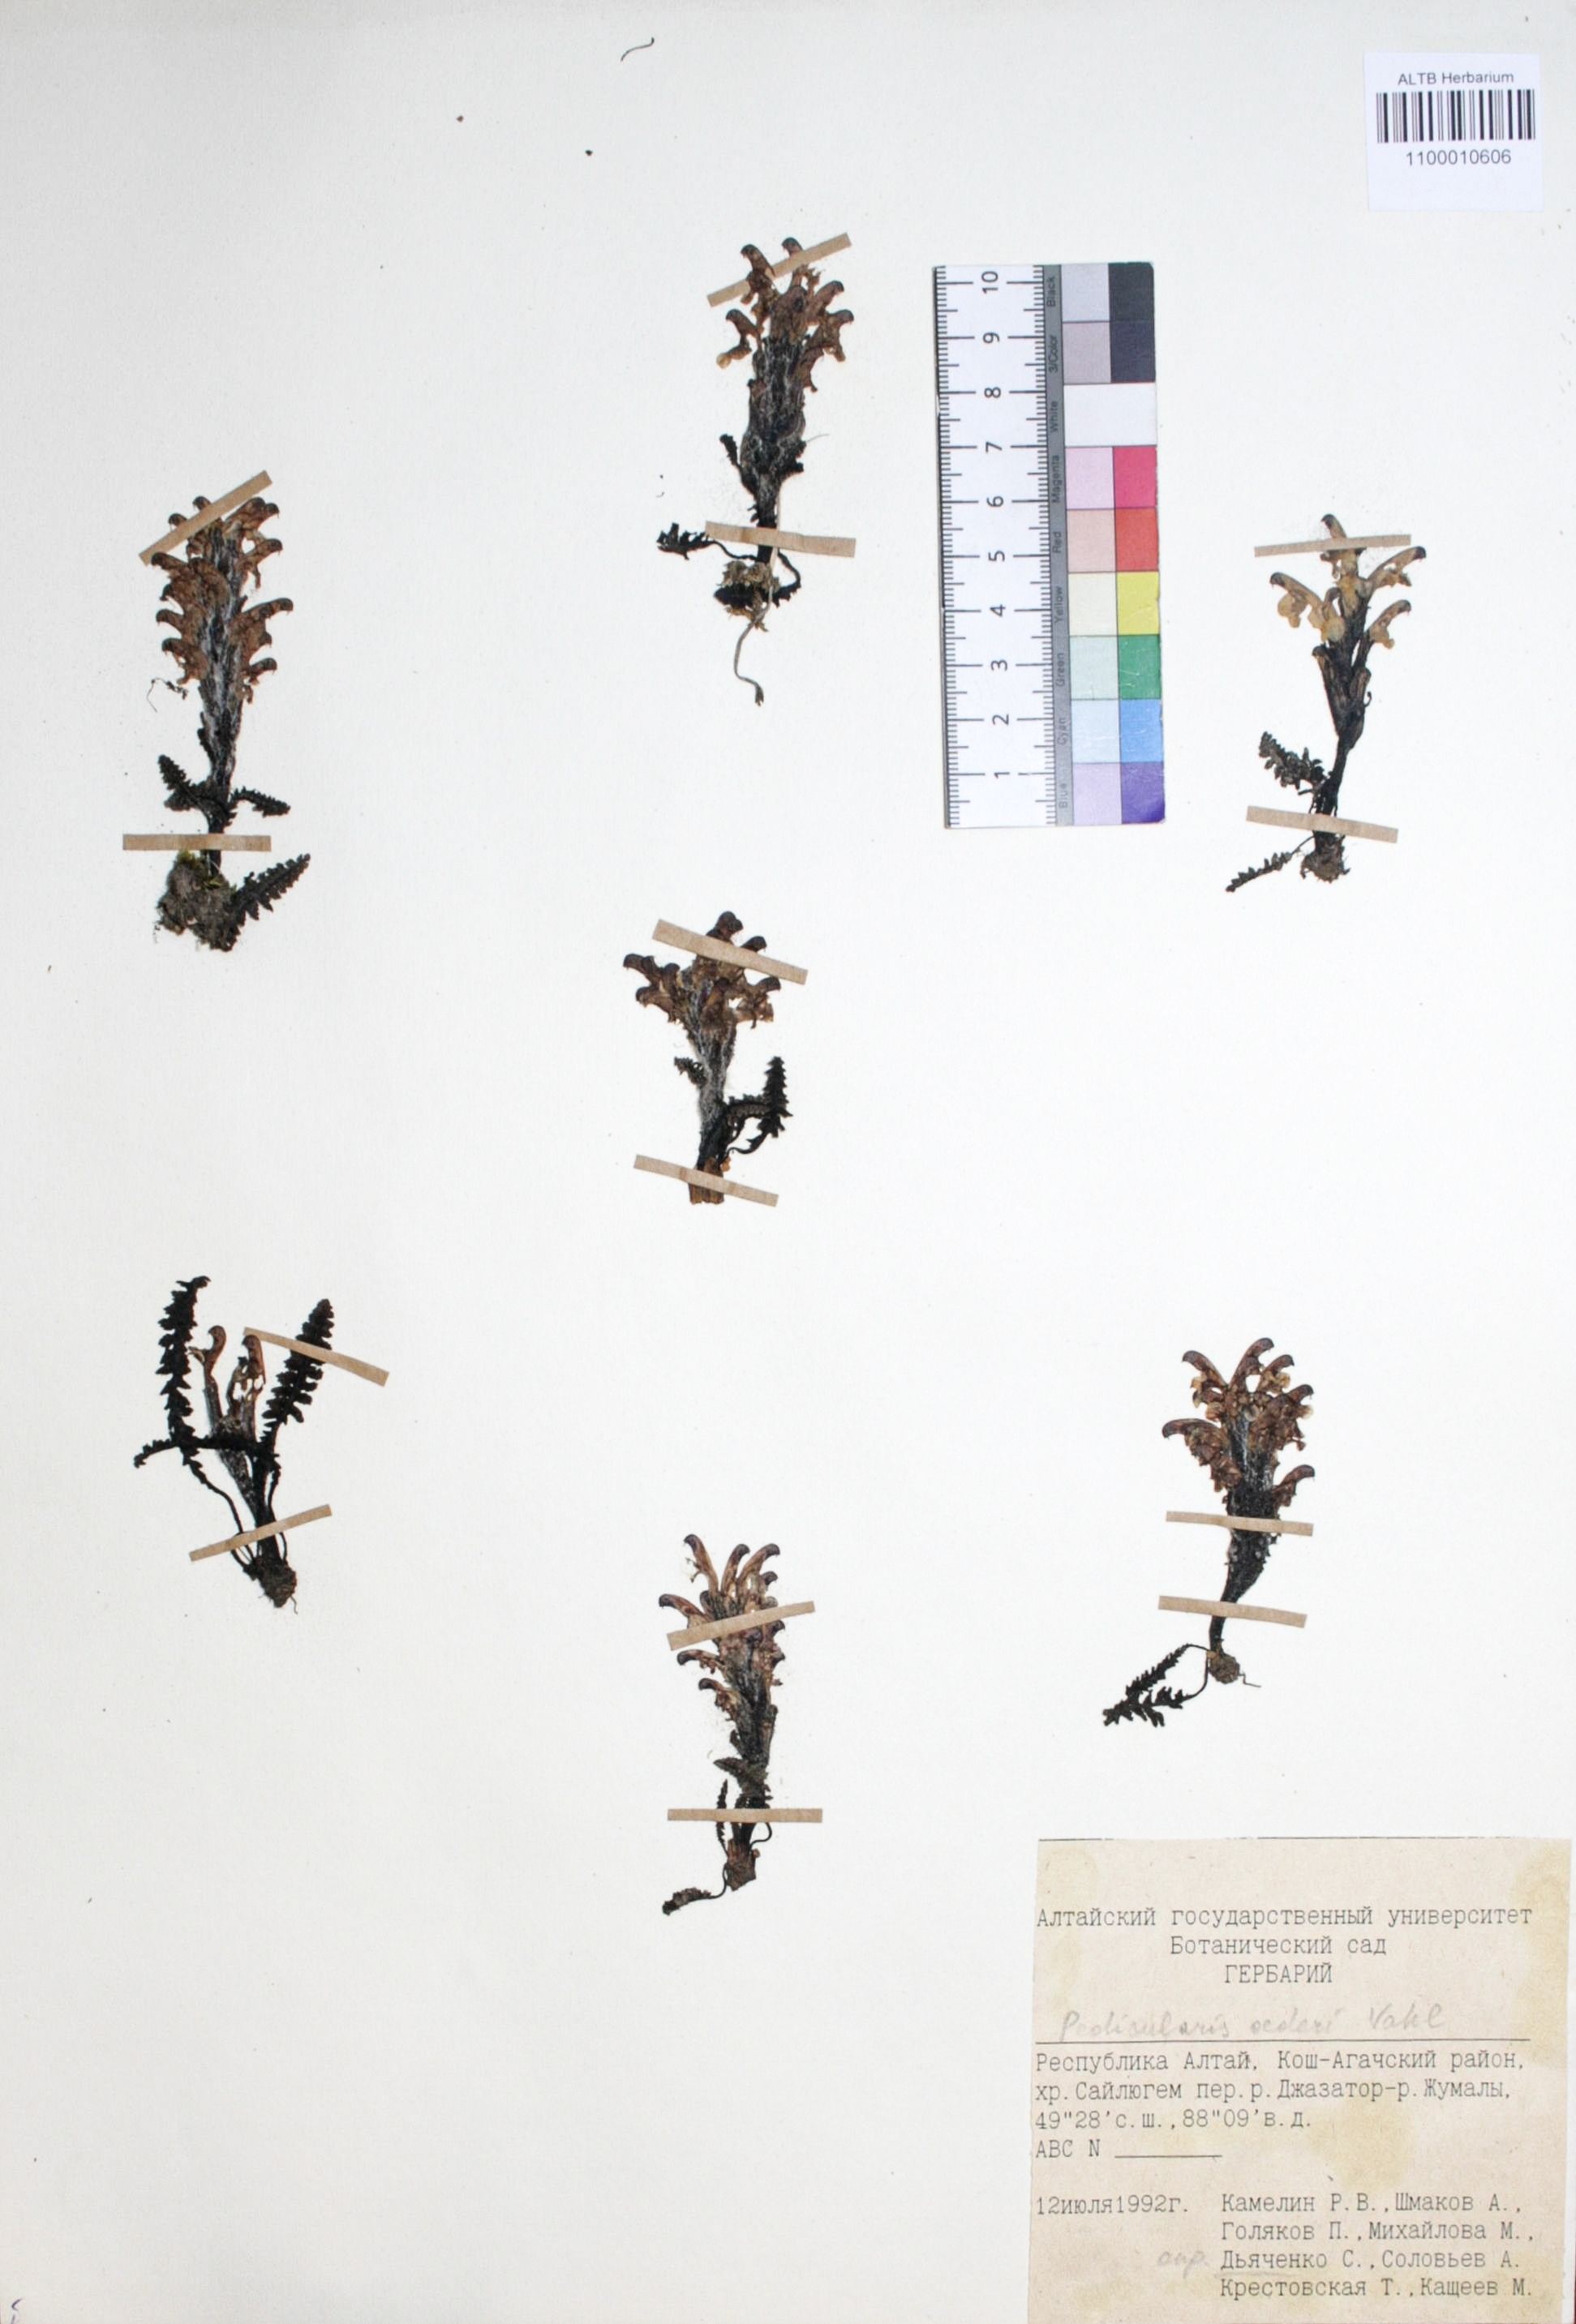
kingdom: Plantae
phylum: Tracheophyta
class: Magnoliopsida
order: Caryophyllales
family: Caryophyllaceae
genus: Silene
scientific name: Silene graminifolia
